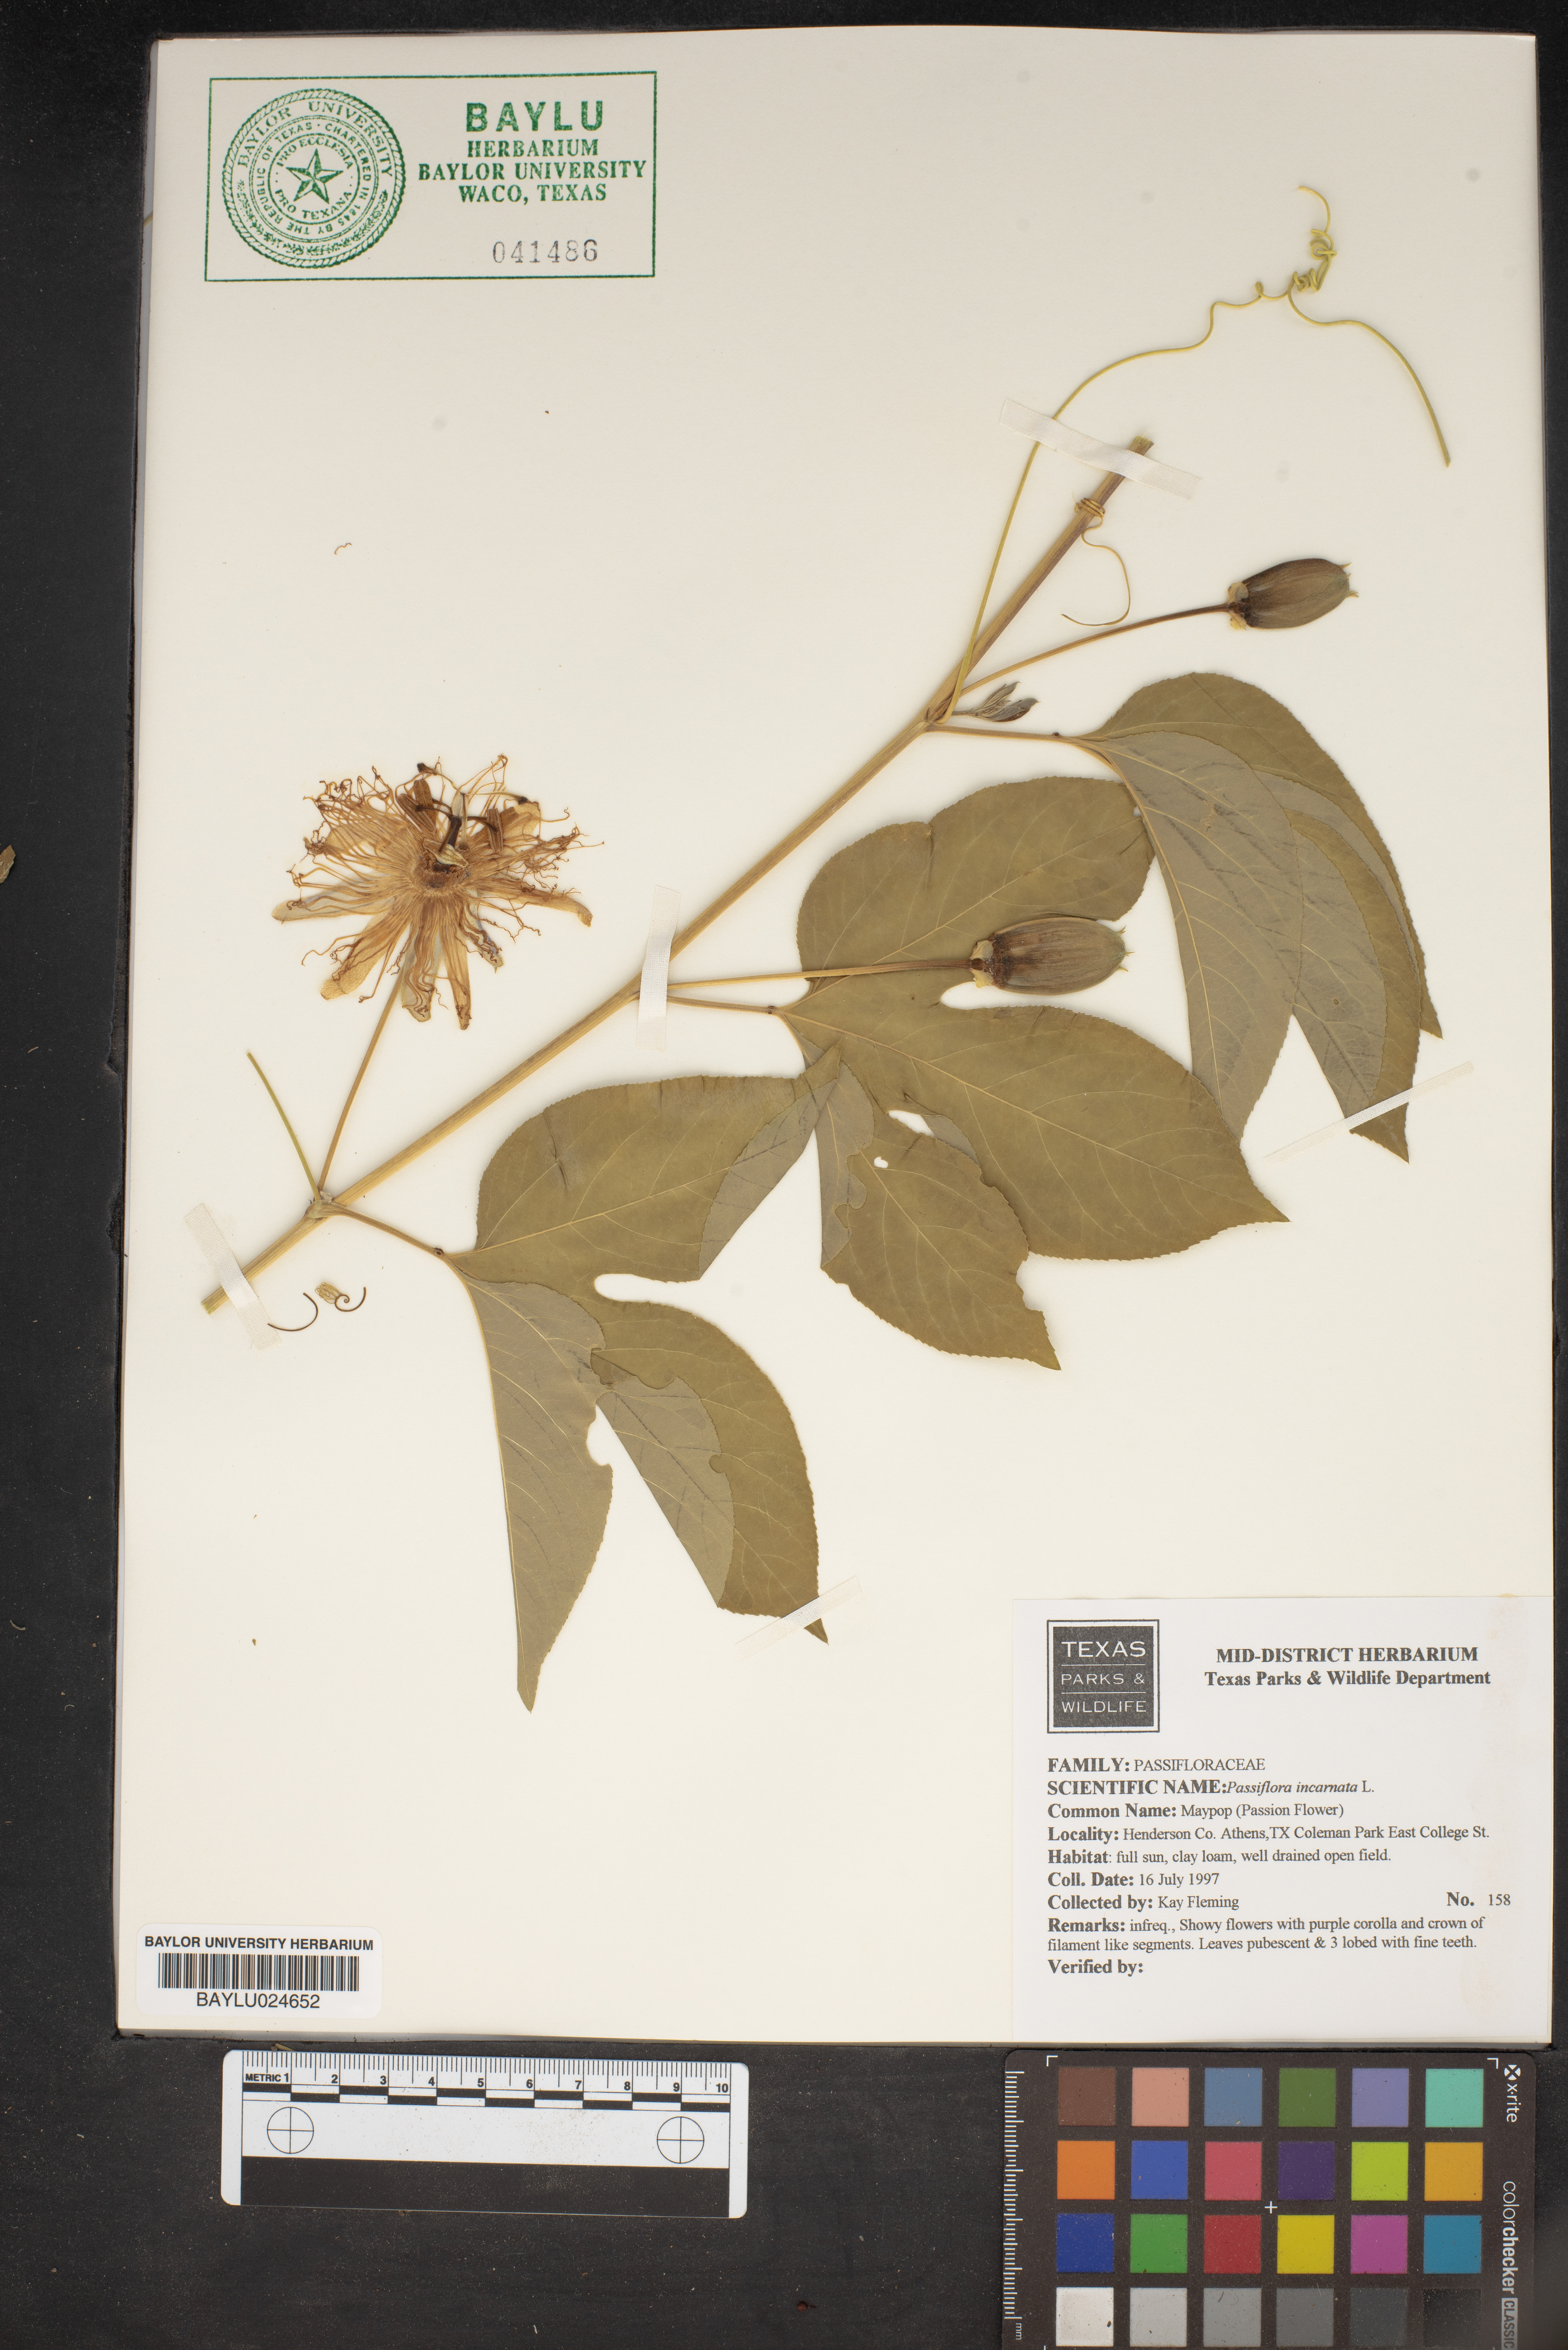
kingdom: Plantae
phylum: Tracheophyta
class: Magnoliopsida
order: Malpighiales
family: Passifloraceae
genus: Passiflora
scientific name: Passiflora incarnata
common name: Apricot-vine
